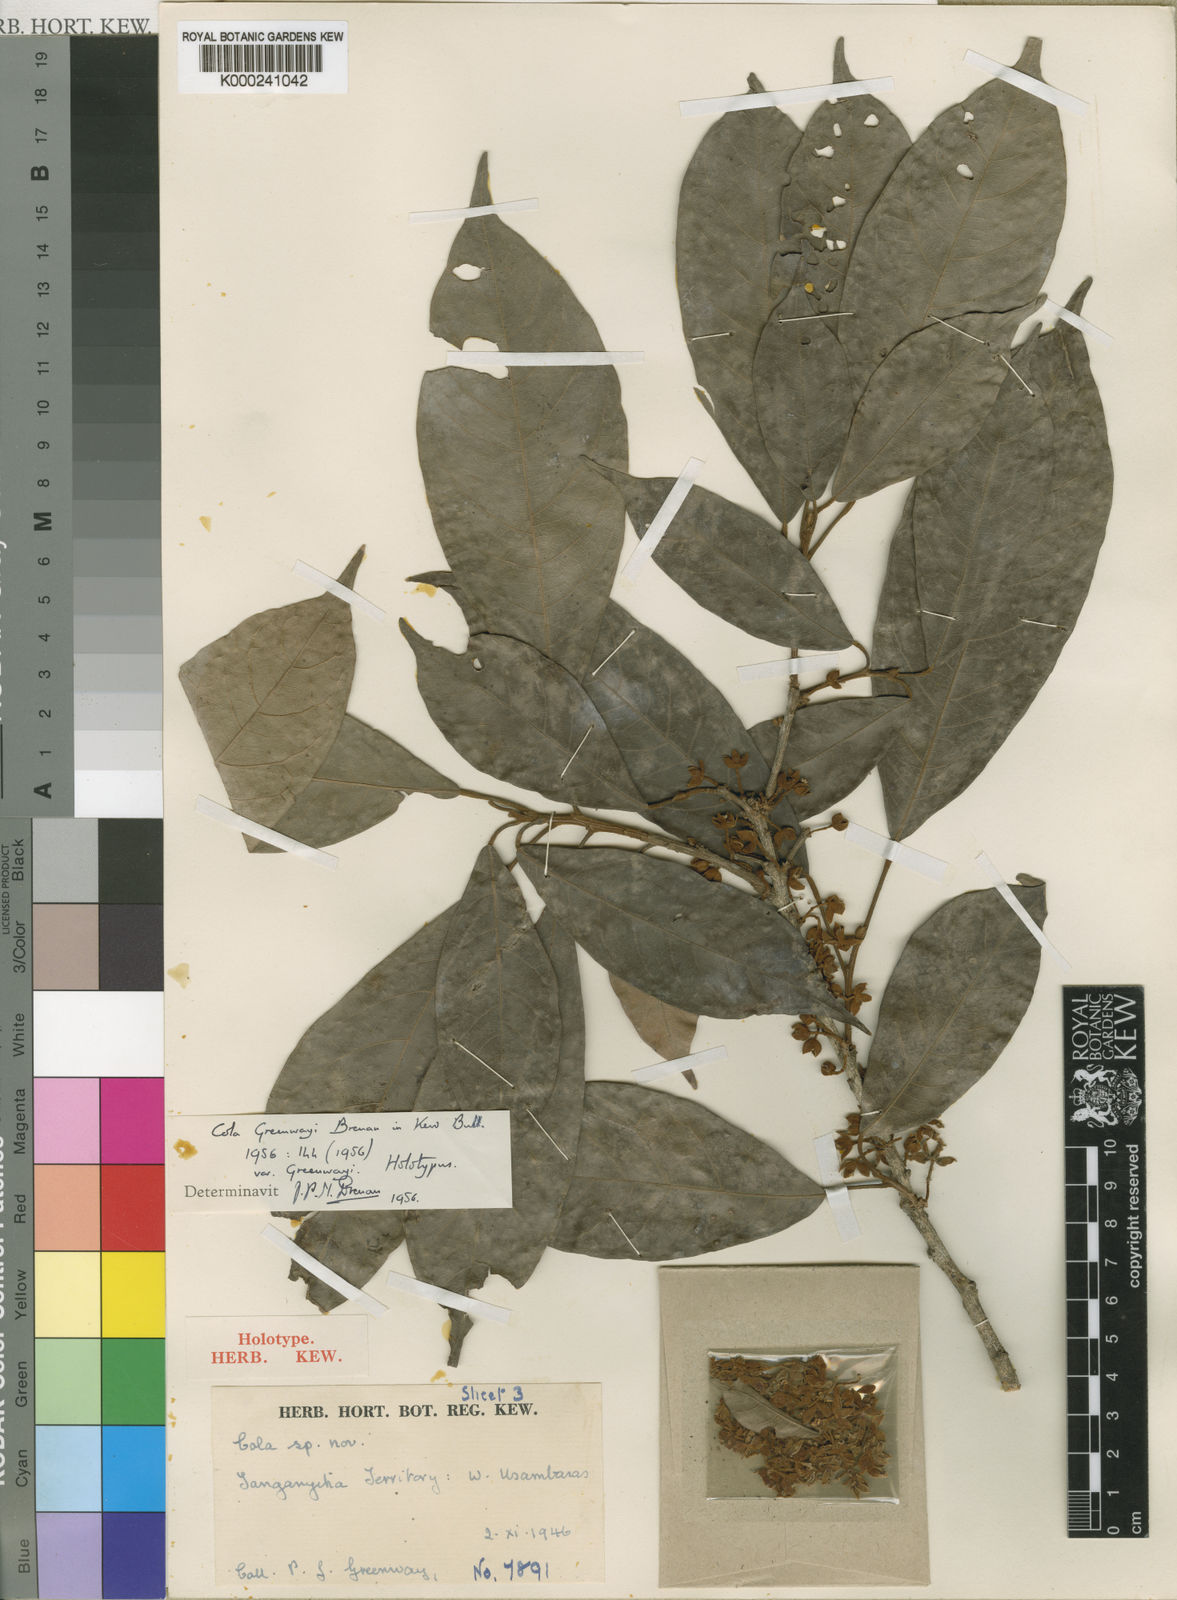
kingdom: Plantae
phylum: Tracheophyta
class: Magnoliopsida
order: Malvales
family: Malvaceae
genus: Cola
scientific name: Cola greenwayi
